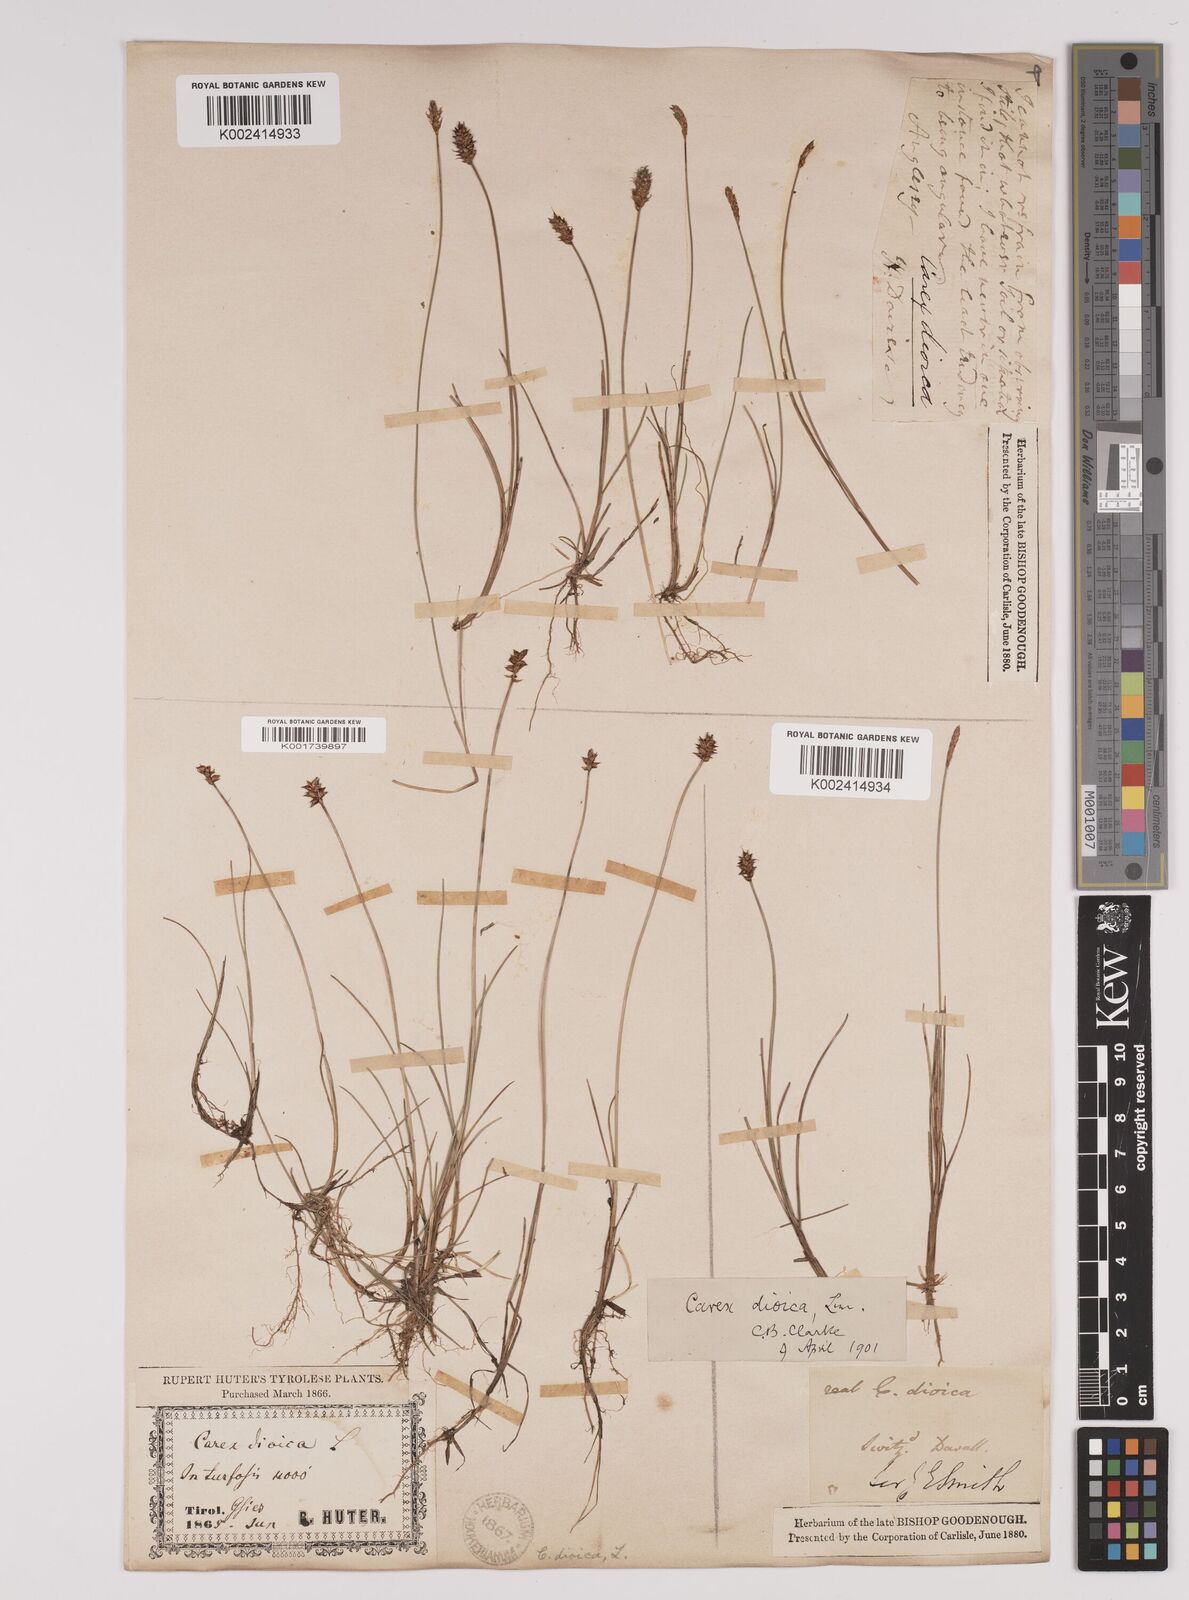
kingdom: Plantae
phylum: Tracheophyta
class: Liliopsida
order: Poales
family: Cyperaceae
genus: Carex
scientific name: Carex dioica
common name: Dioecious sedge
